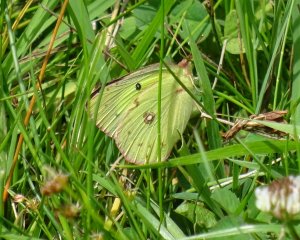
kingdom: Animalia
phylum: Arthropoda
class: Insecta
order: Lepidoptera
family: Pieridae
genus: Colias
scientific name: Colias philodice
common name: Clouded Sulphur
